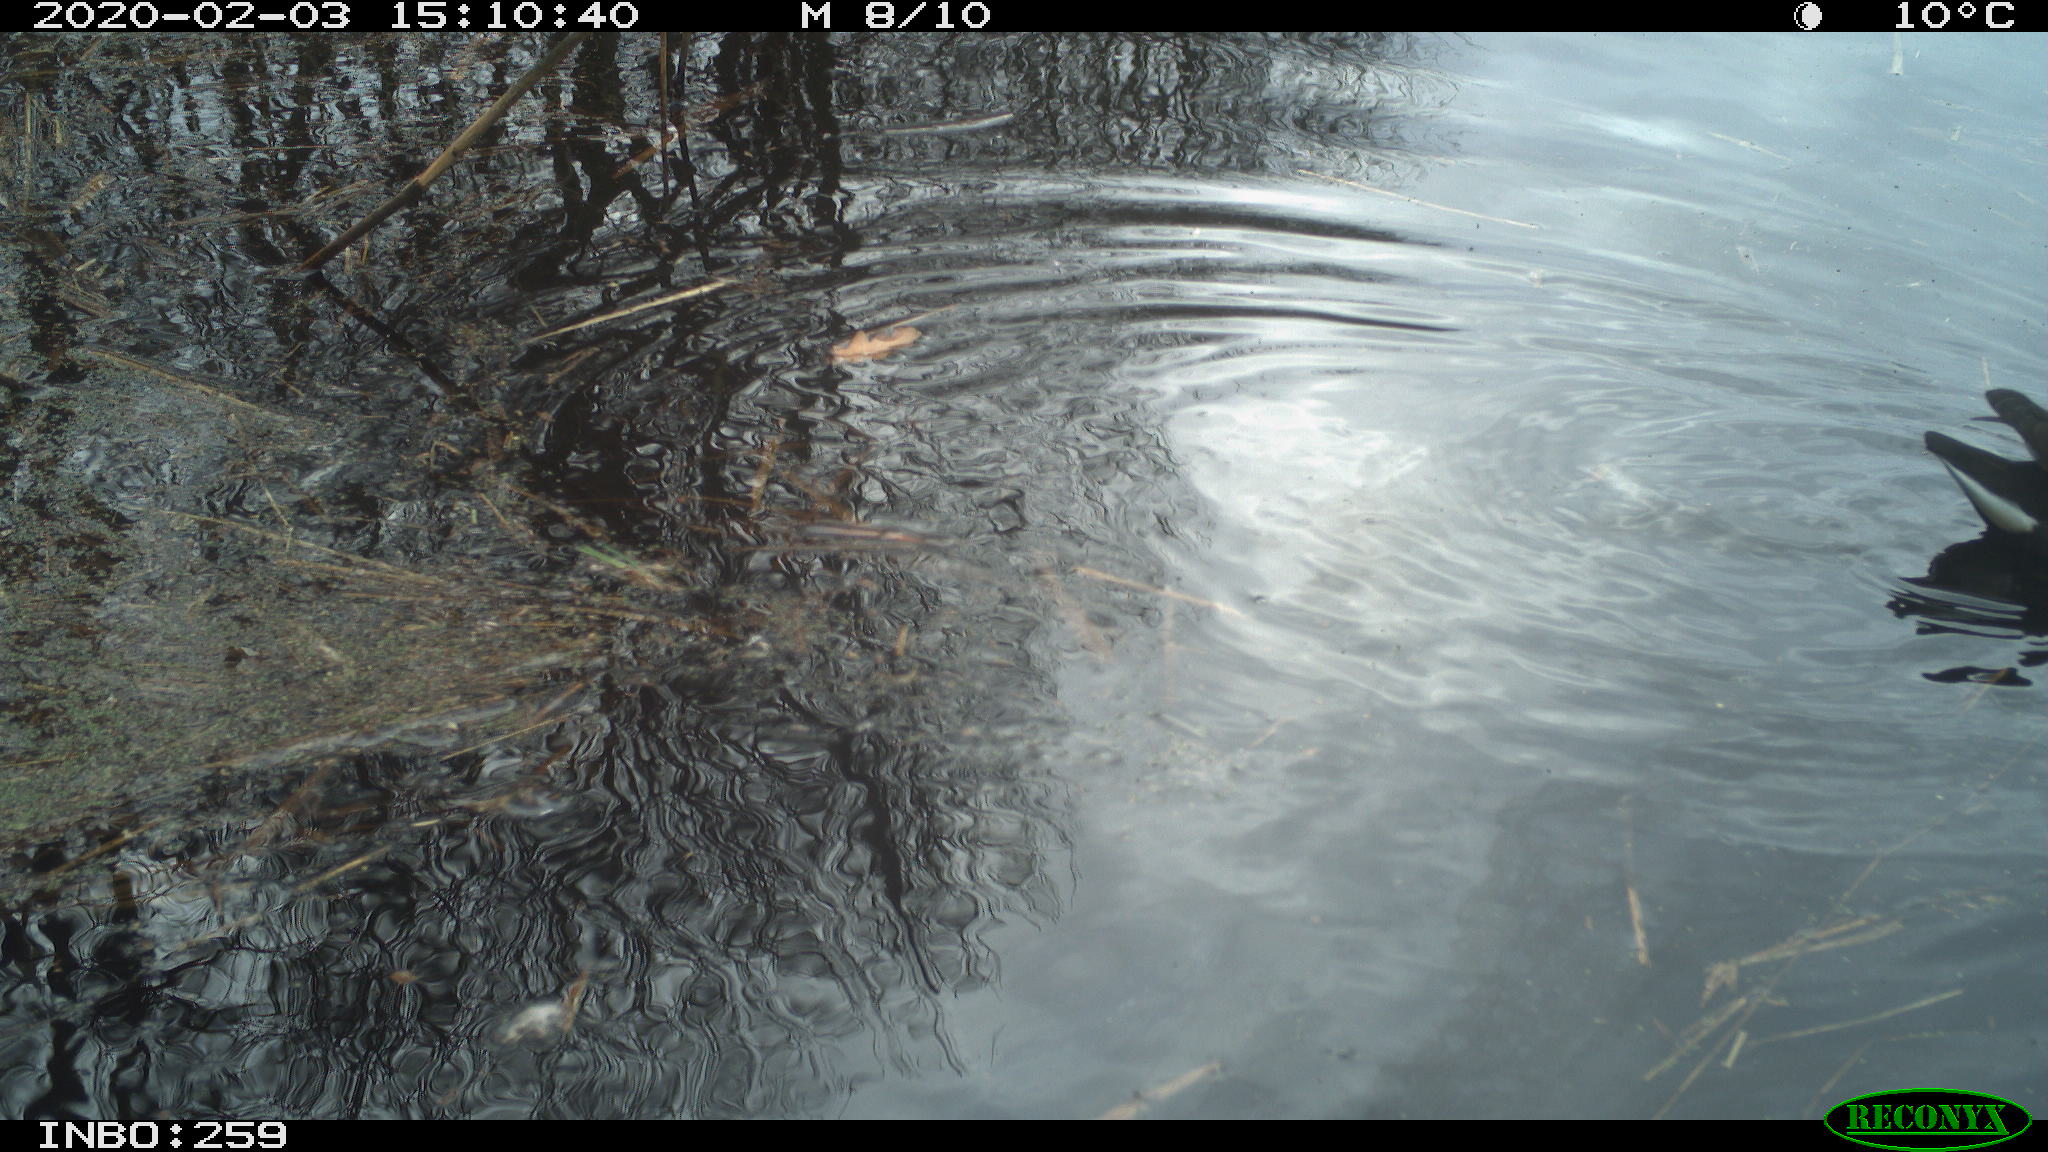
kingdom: Animalia
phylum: Chordata
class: Aves
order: Gruiformes
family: Rallidae
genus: Gallinula
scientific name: Gallinula chloropus
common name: Common moorhen
